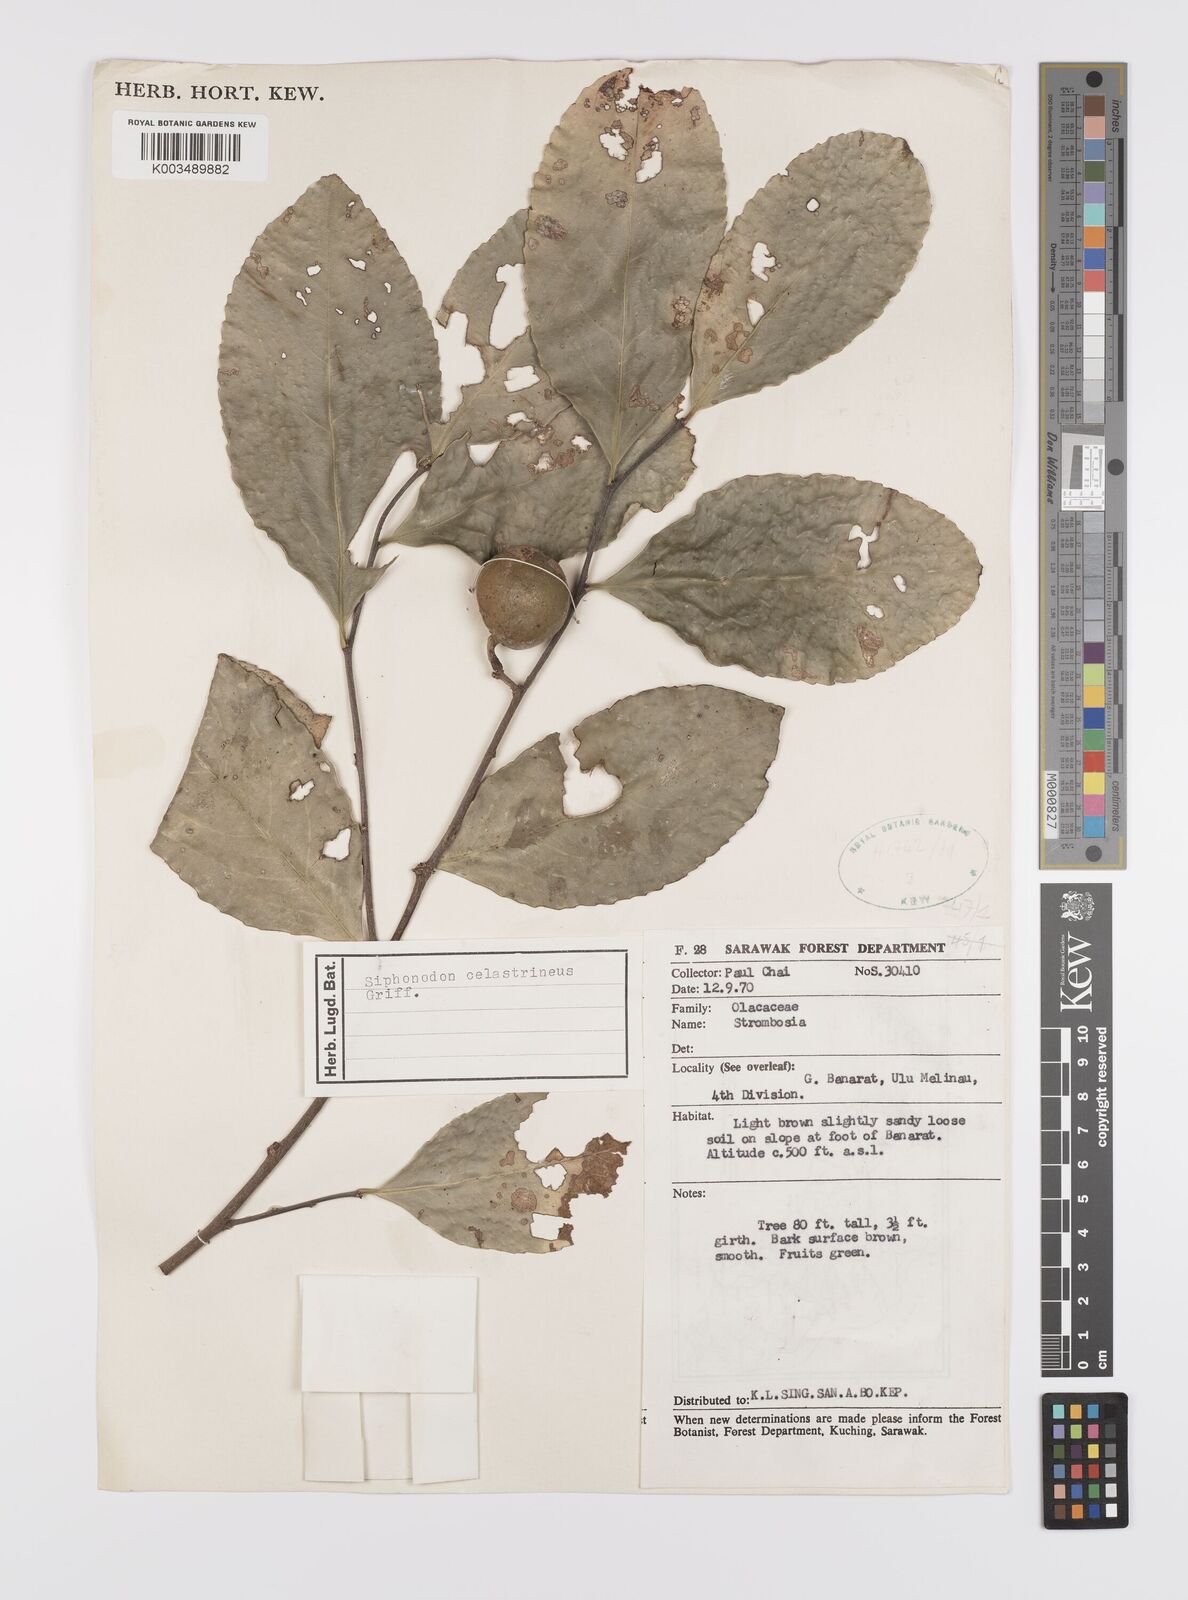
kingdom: Plantae
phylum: Tracheophyta
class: Magnoliopsida
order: Celastrales
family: Celastraceae
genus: Siphonodon
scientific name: Siphonodon celastrineus
